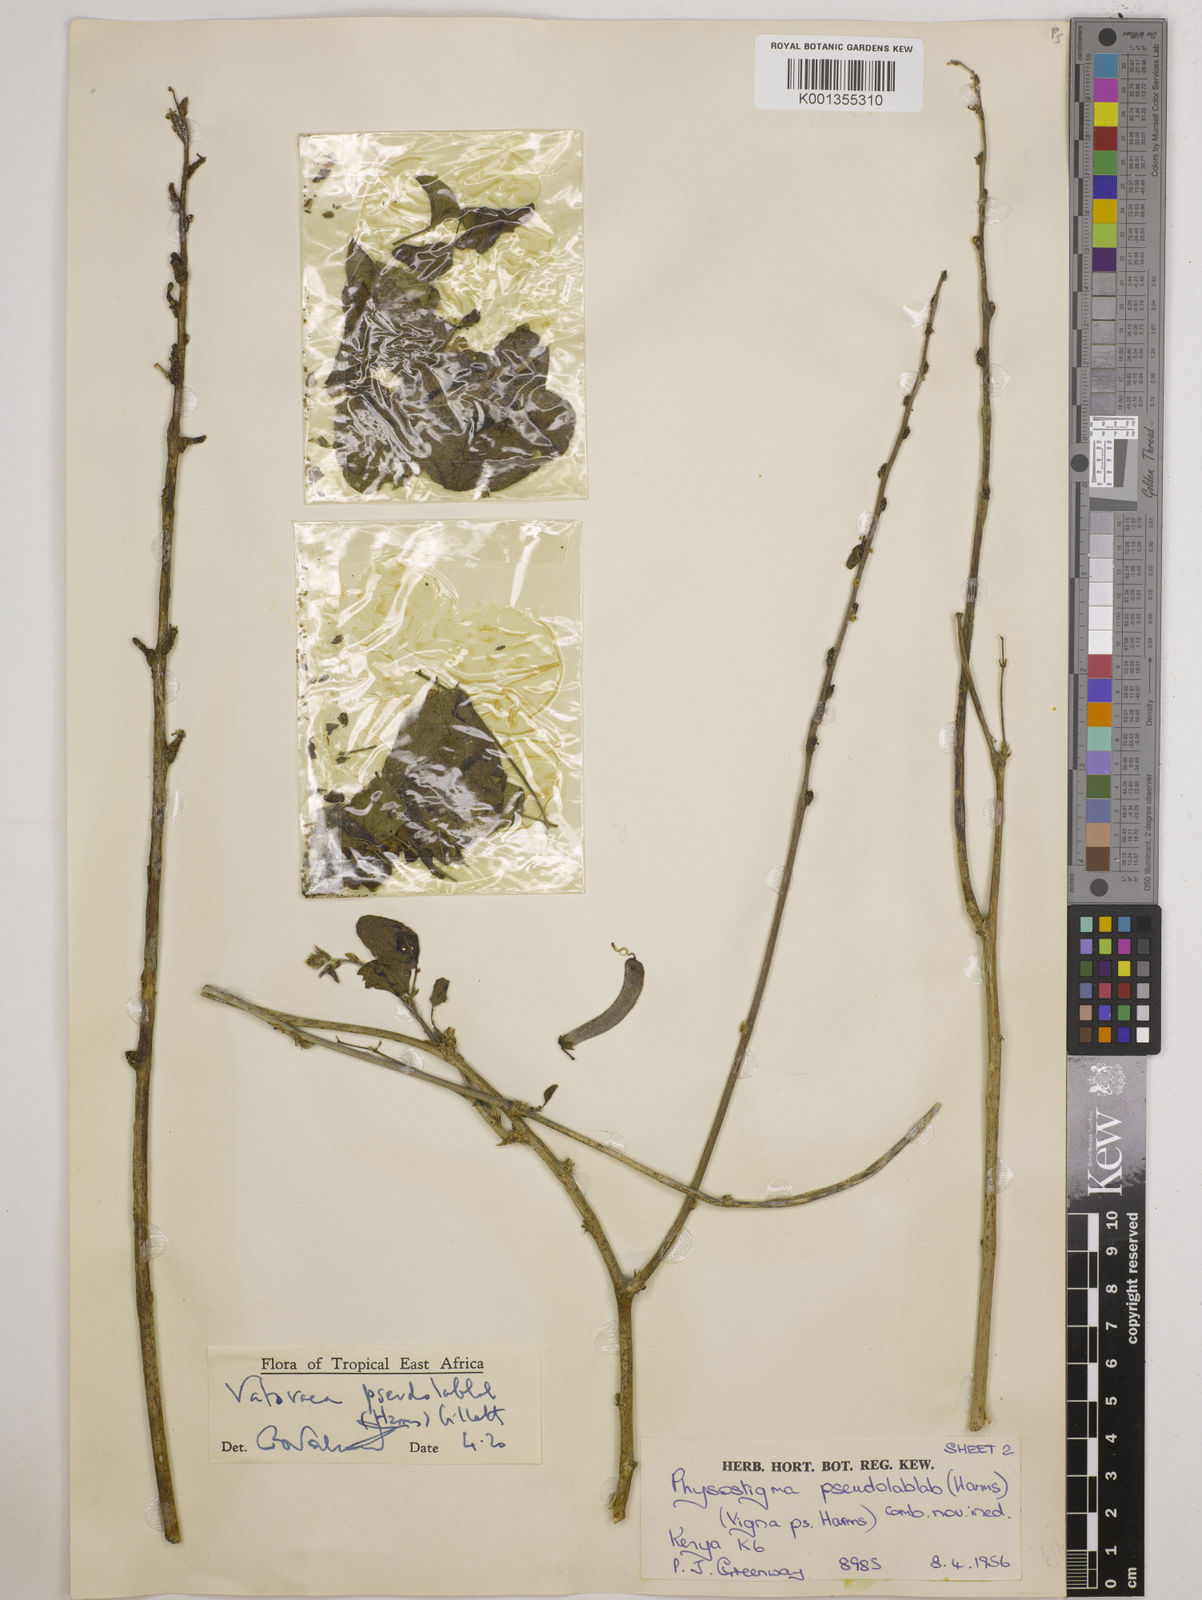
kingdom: Plantae
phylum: Tracheophyta
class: Magnoliopsida
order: Fabales
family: Fabaceae
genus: Vatovaea
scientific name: Vatovaea pseudolablab
